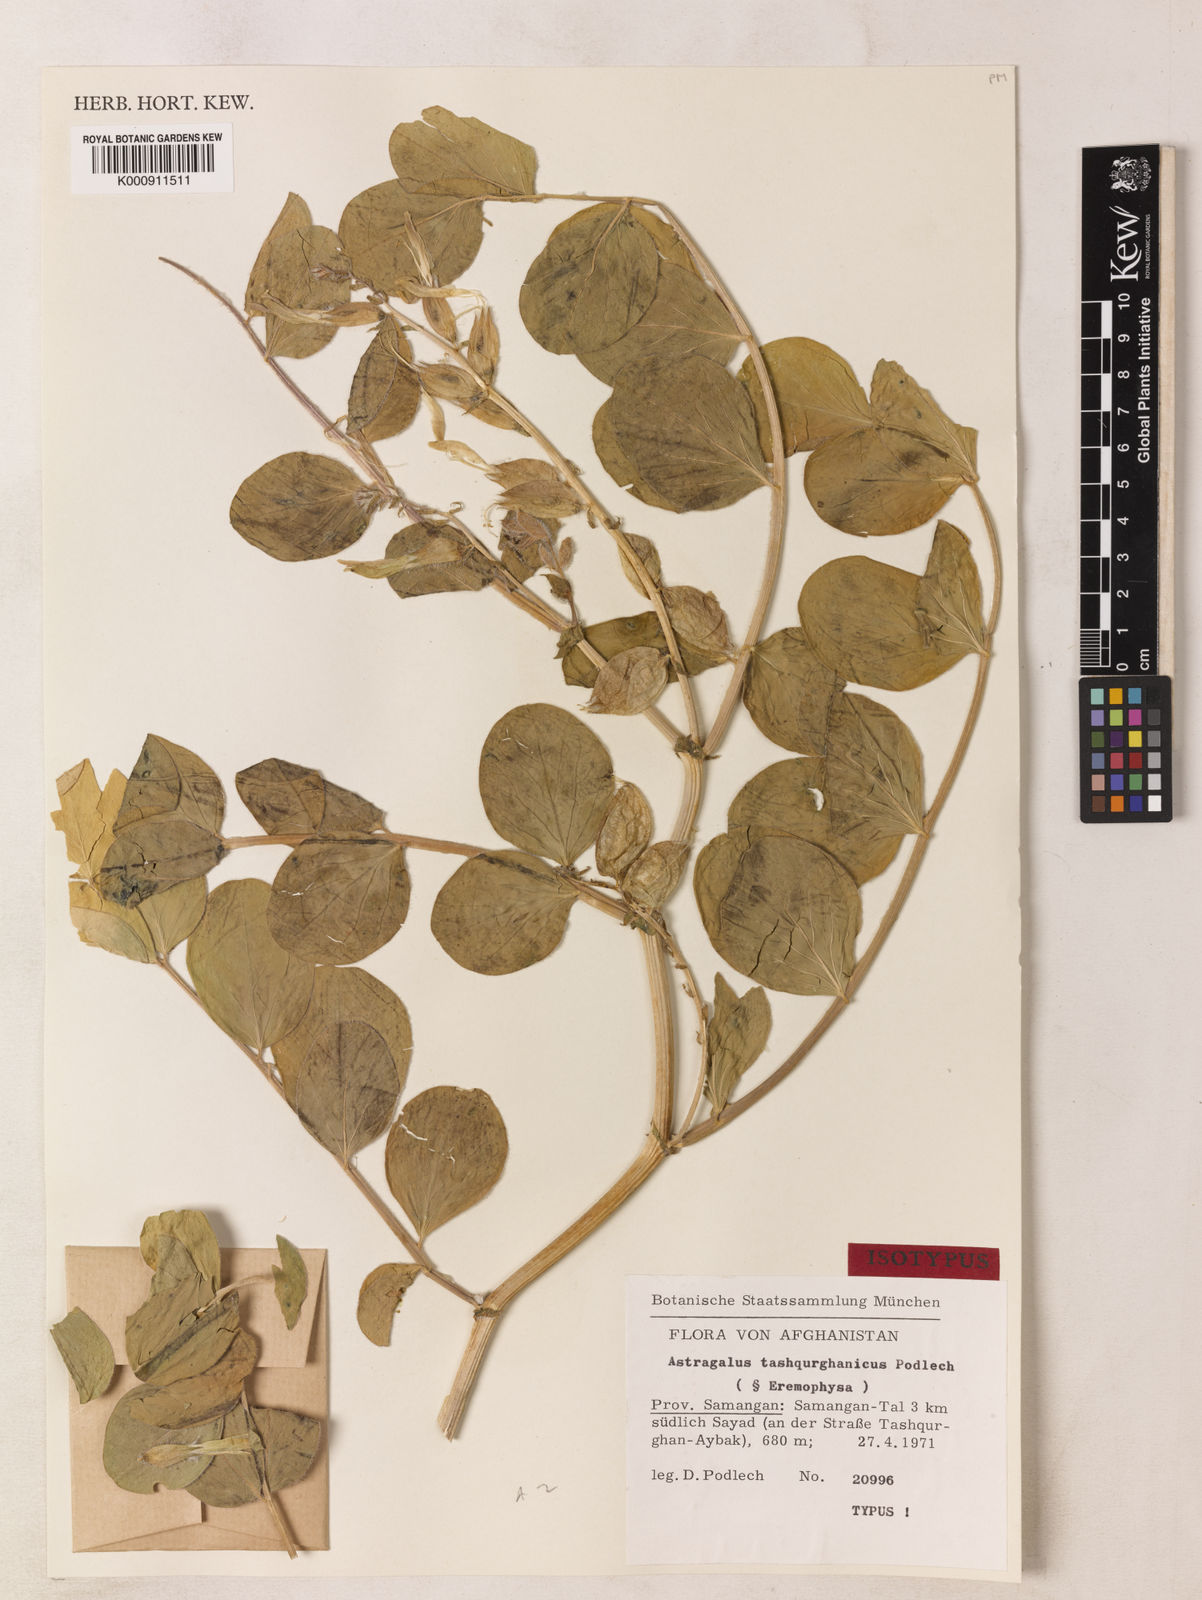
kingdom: Plantae
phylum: Tracheophyta
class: Magnoliopsida
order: Fabales
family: Fabaceae
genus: Astragalus
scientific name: Astragalus tatjanae
